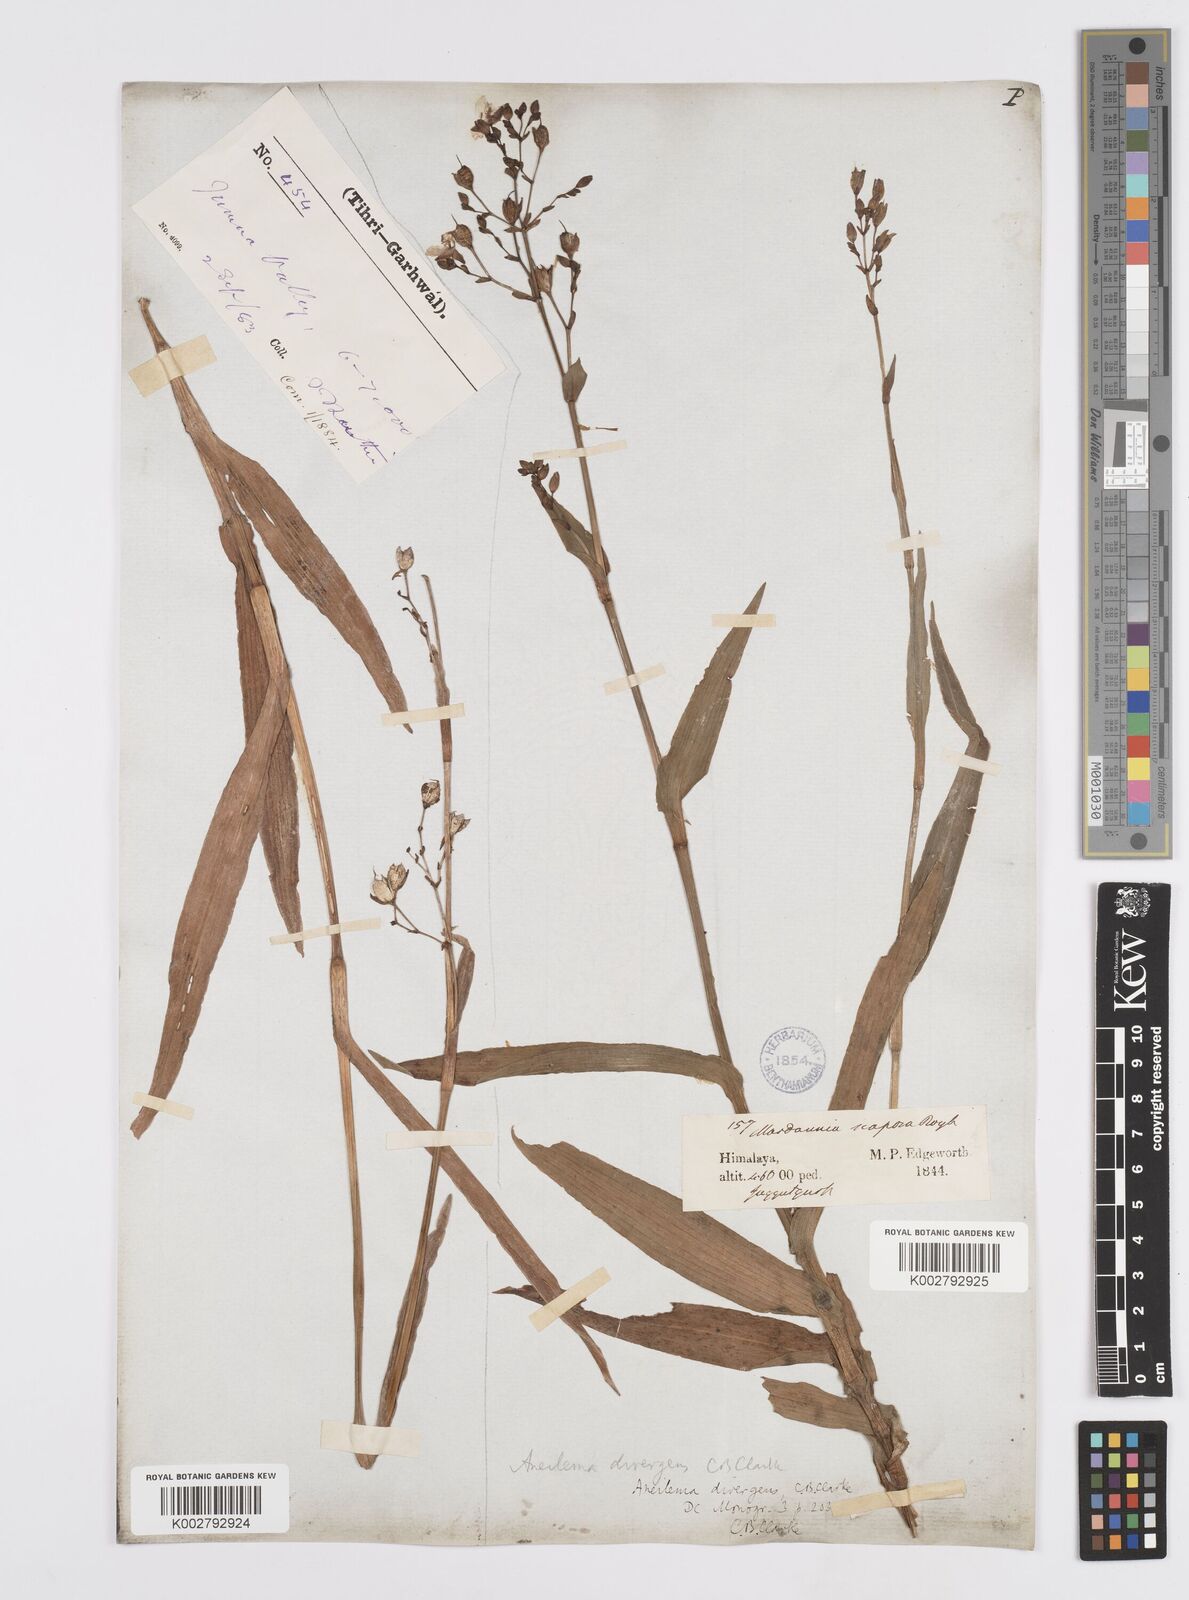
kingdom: Plantae
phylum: Tracheophyta
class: Liliopsida
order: Commelinales
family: Commelinaceae
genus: Murdannia
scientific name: Murdannia divergens
